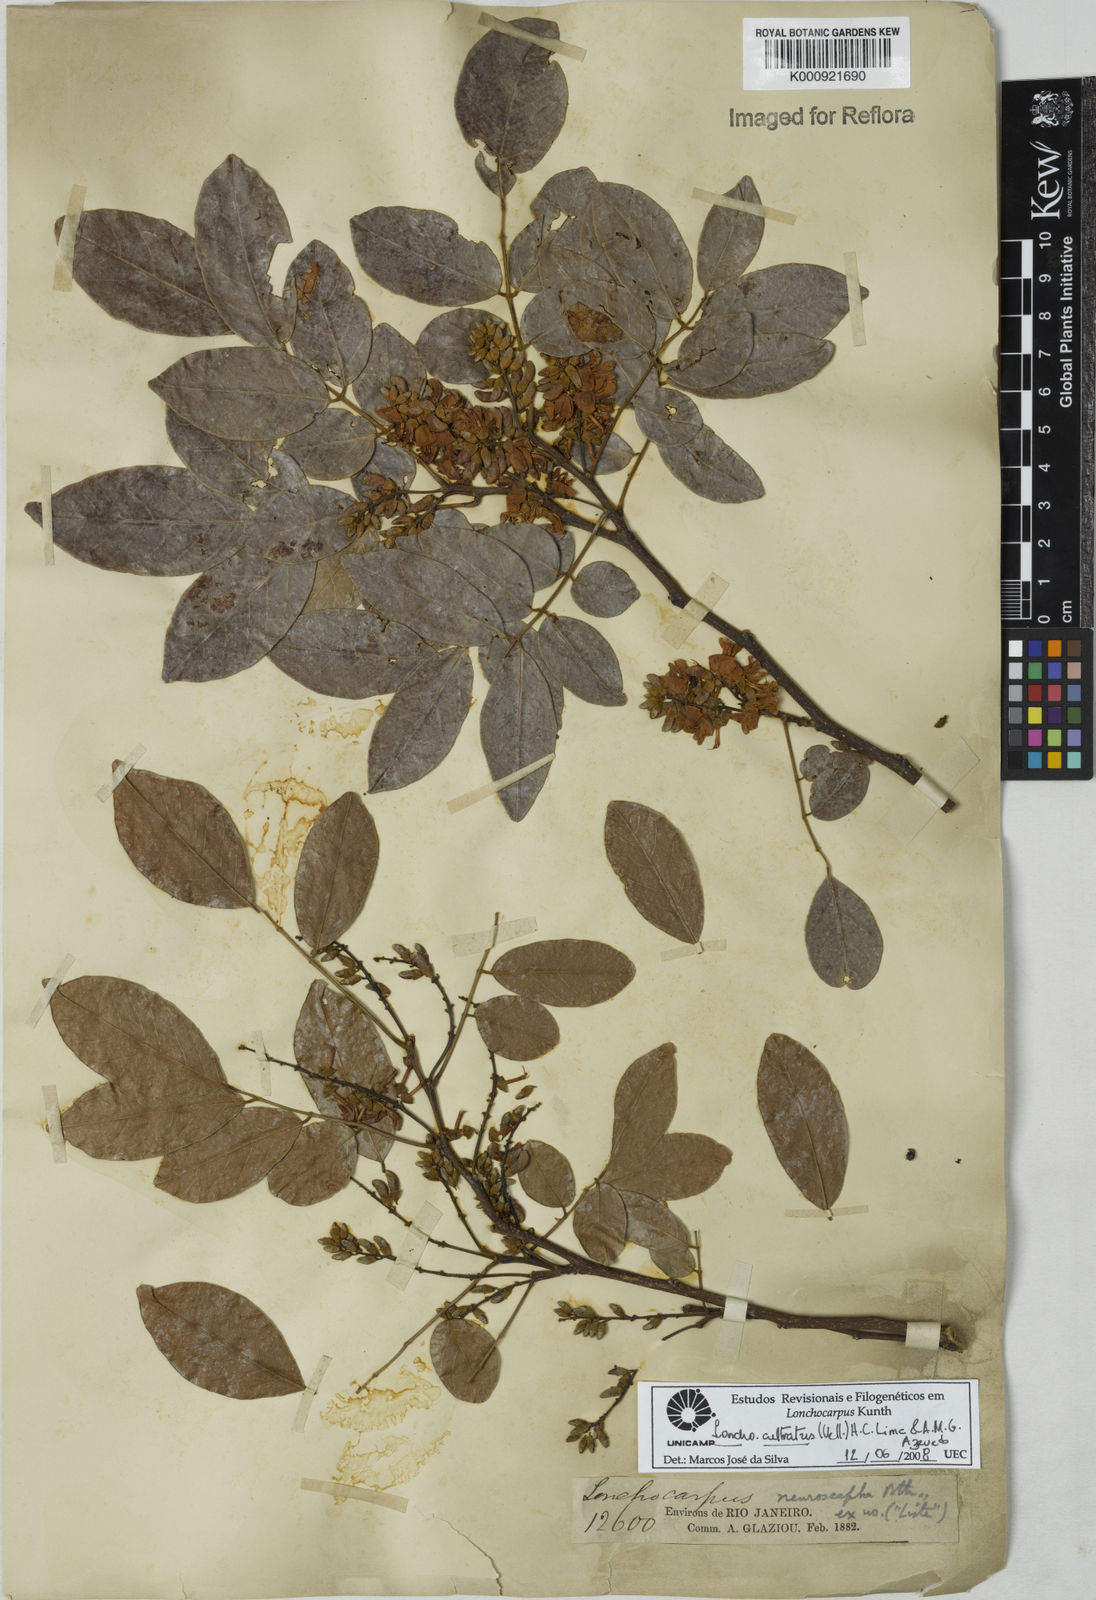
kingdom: Plantae
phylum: Tracheophyta
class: Magnoliopsida
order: Fabales
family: Fabaceae
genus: Lonchocarpus
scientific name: Lonchocarpus cultratus
